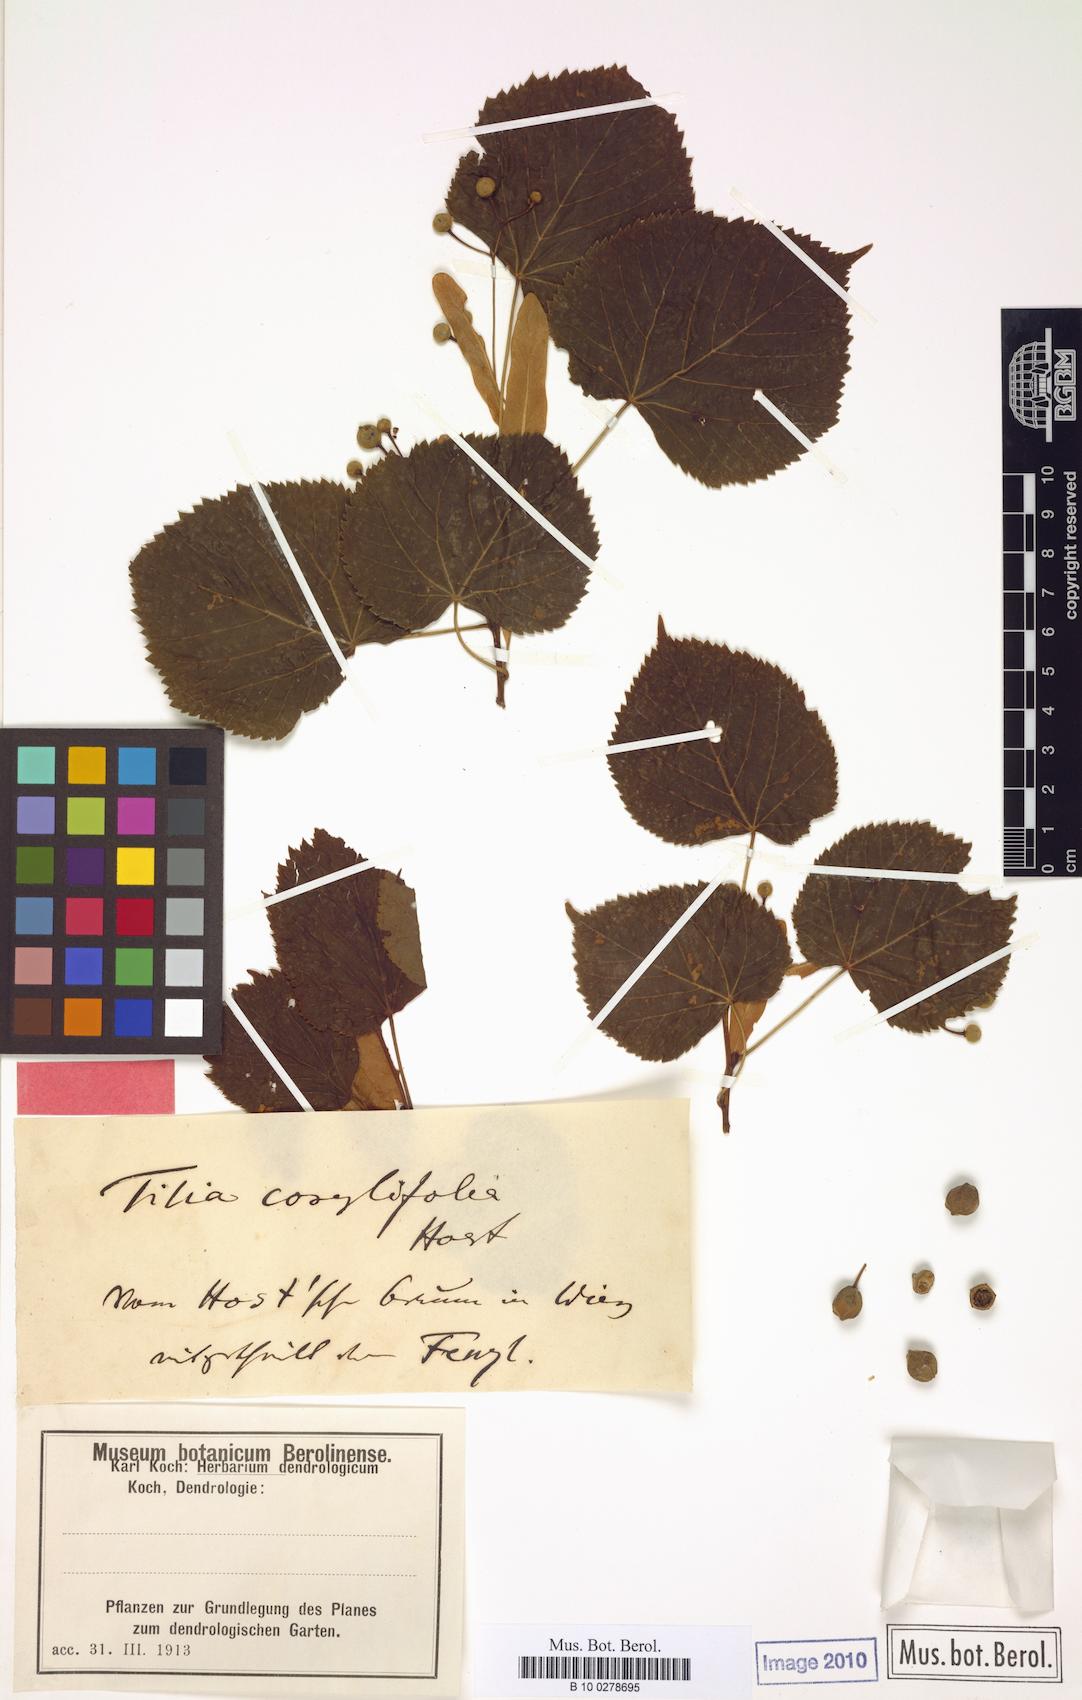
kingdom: Plantae
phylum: Tracheophyta
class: Magnoliopsida
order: Malvales
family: Malvaceae
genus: Tilia
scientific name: Tilia platyphyllos
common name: Large-leaved lime
